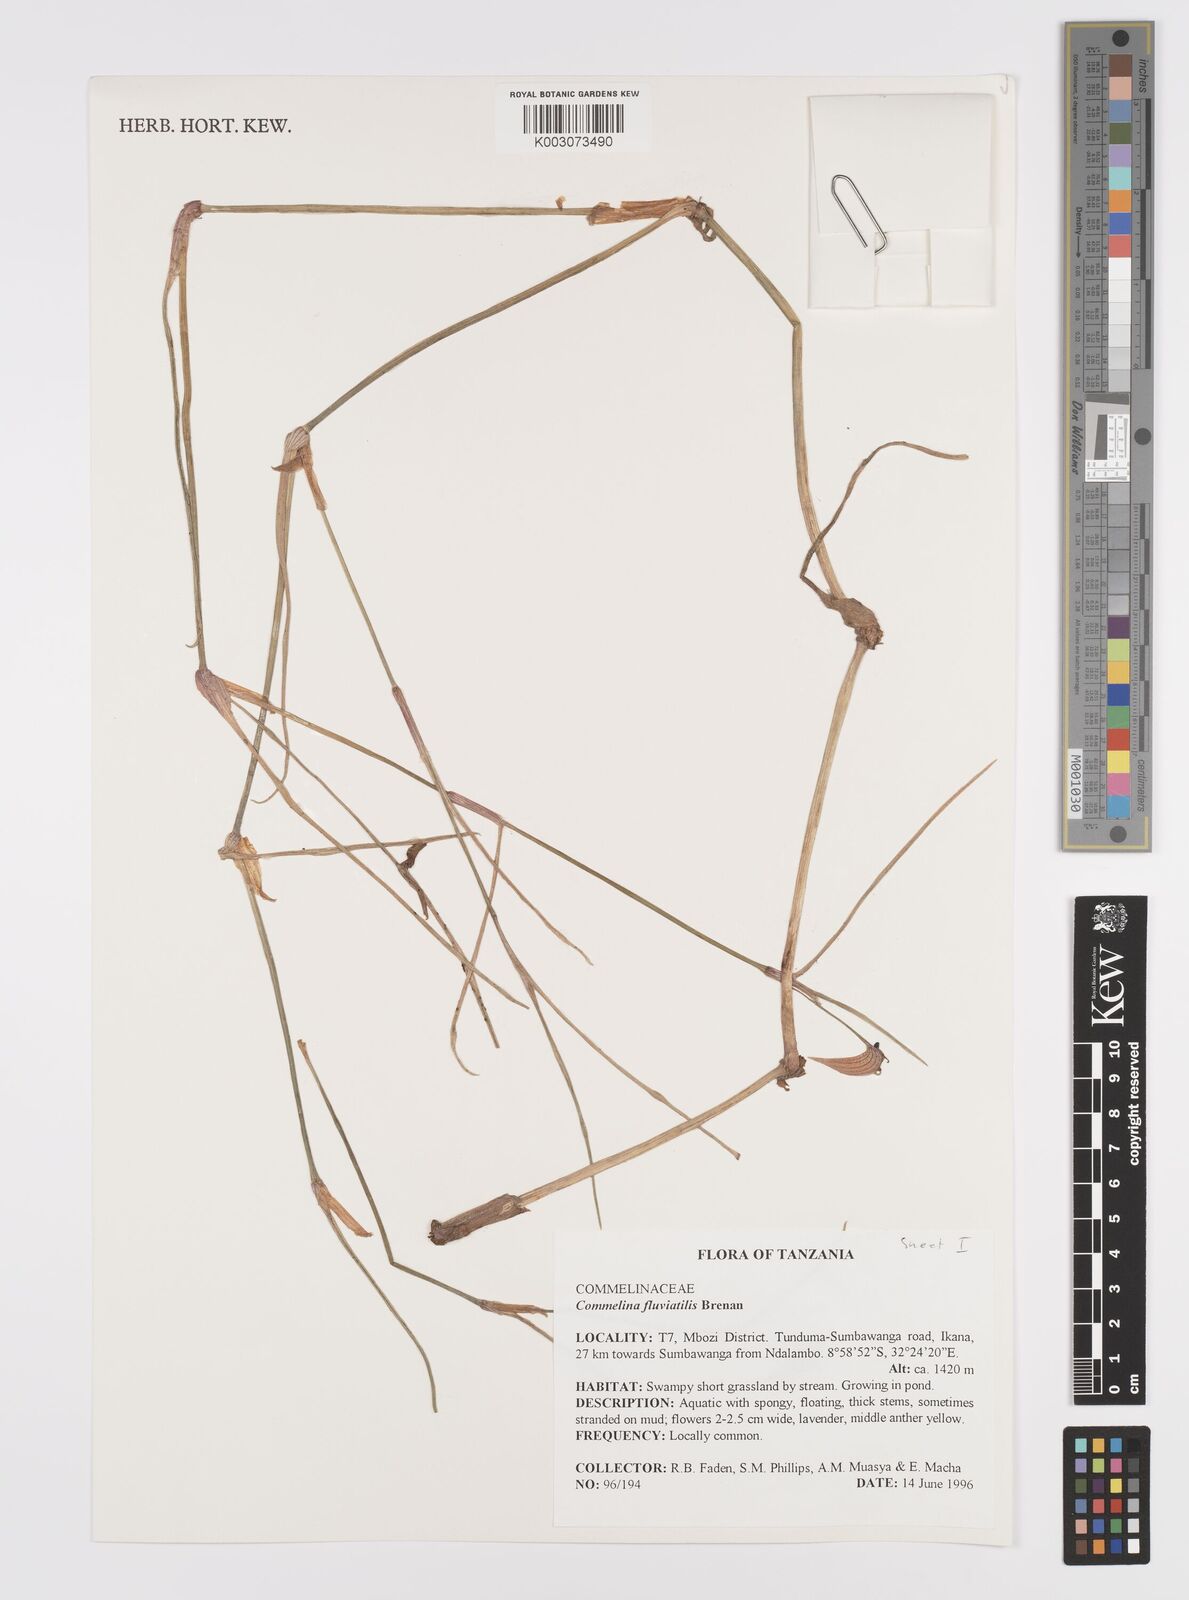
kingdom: Plantae
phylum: Tracheophyta
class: Liliopsida
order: Commelinales
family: Commelinaceae
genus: Commelina
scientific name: Commelina fluviatilis
